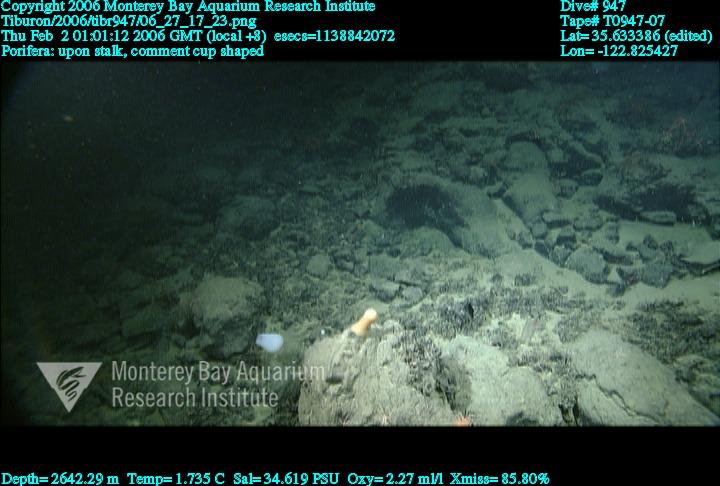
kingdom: Animalia
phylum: Porifera
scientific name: Porifera
